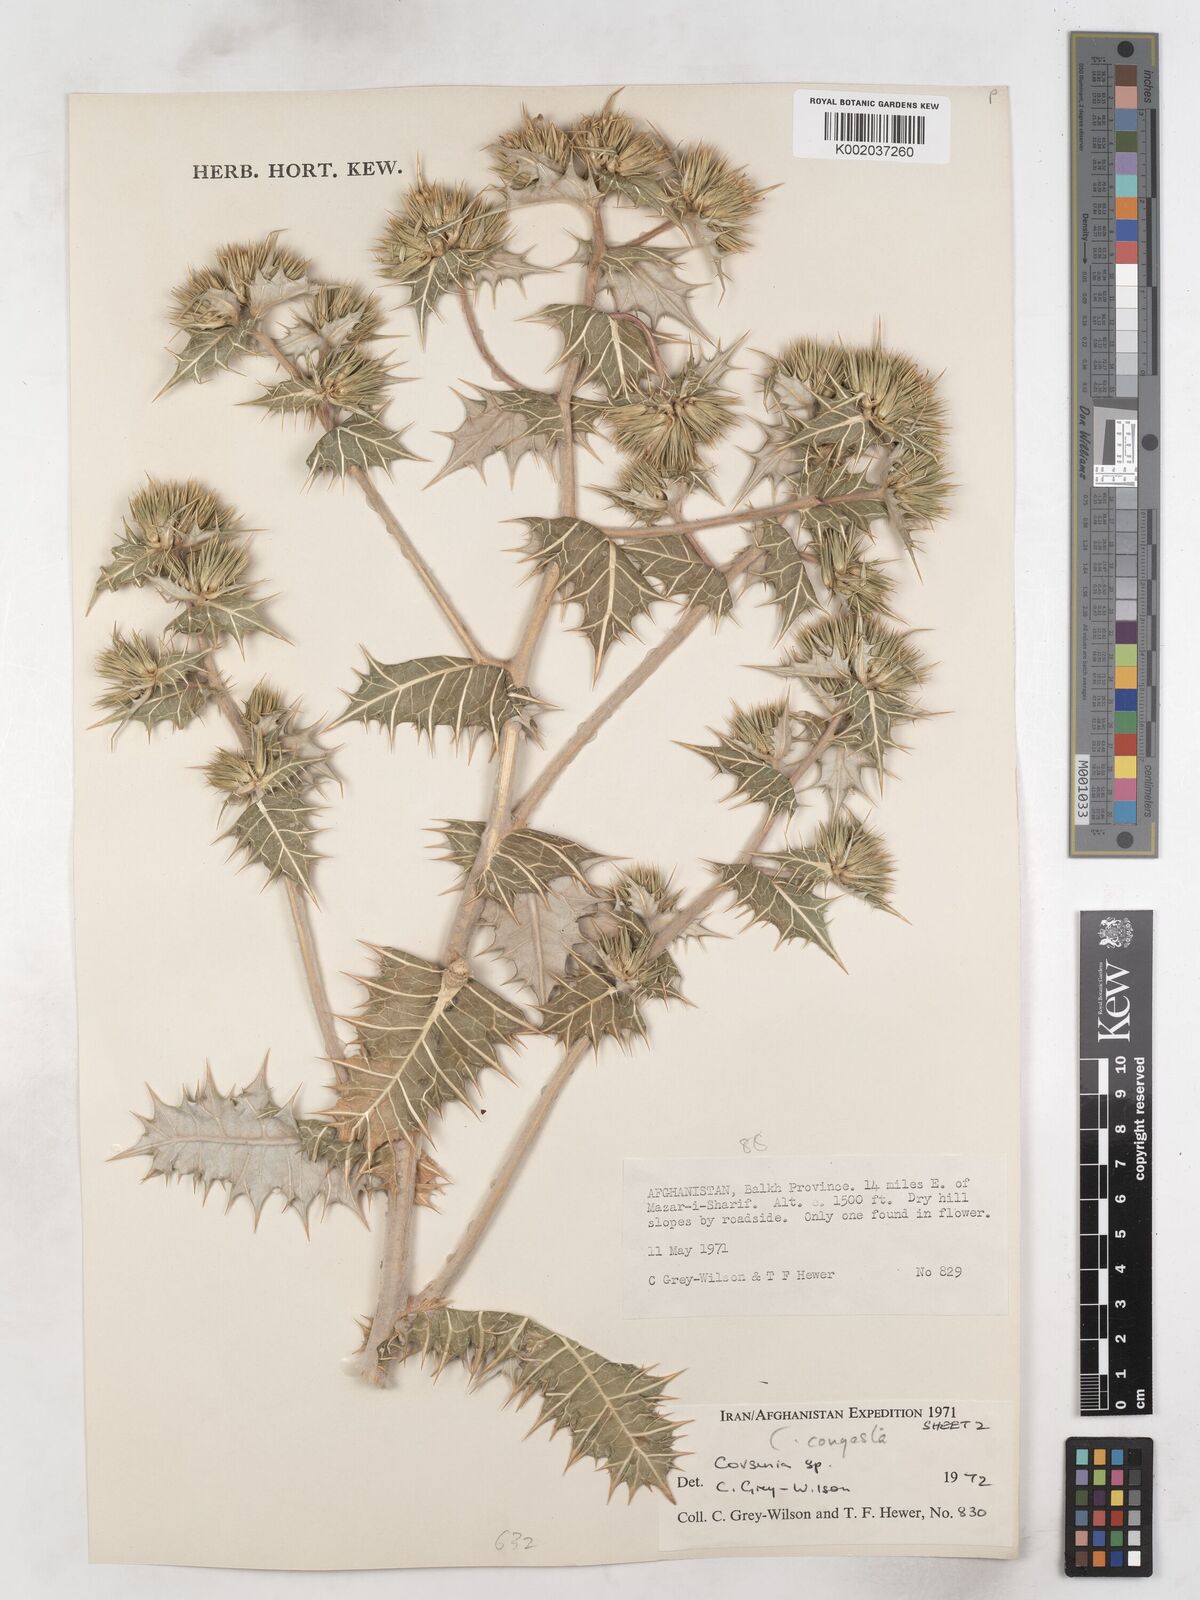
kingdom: Plantae
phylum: Tracheophyta
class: Magnoliopsida
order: Asterales
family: Asteraceae
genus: Cousinia
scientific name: Cousinia congesta
